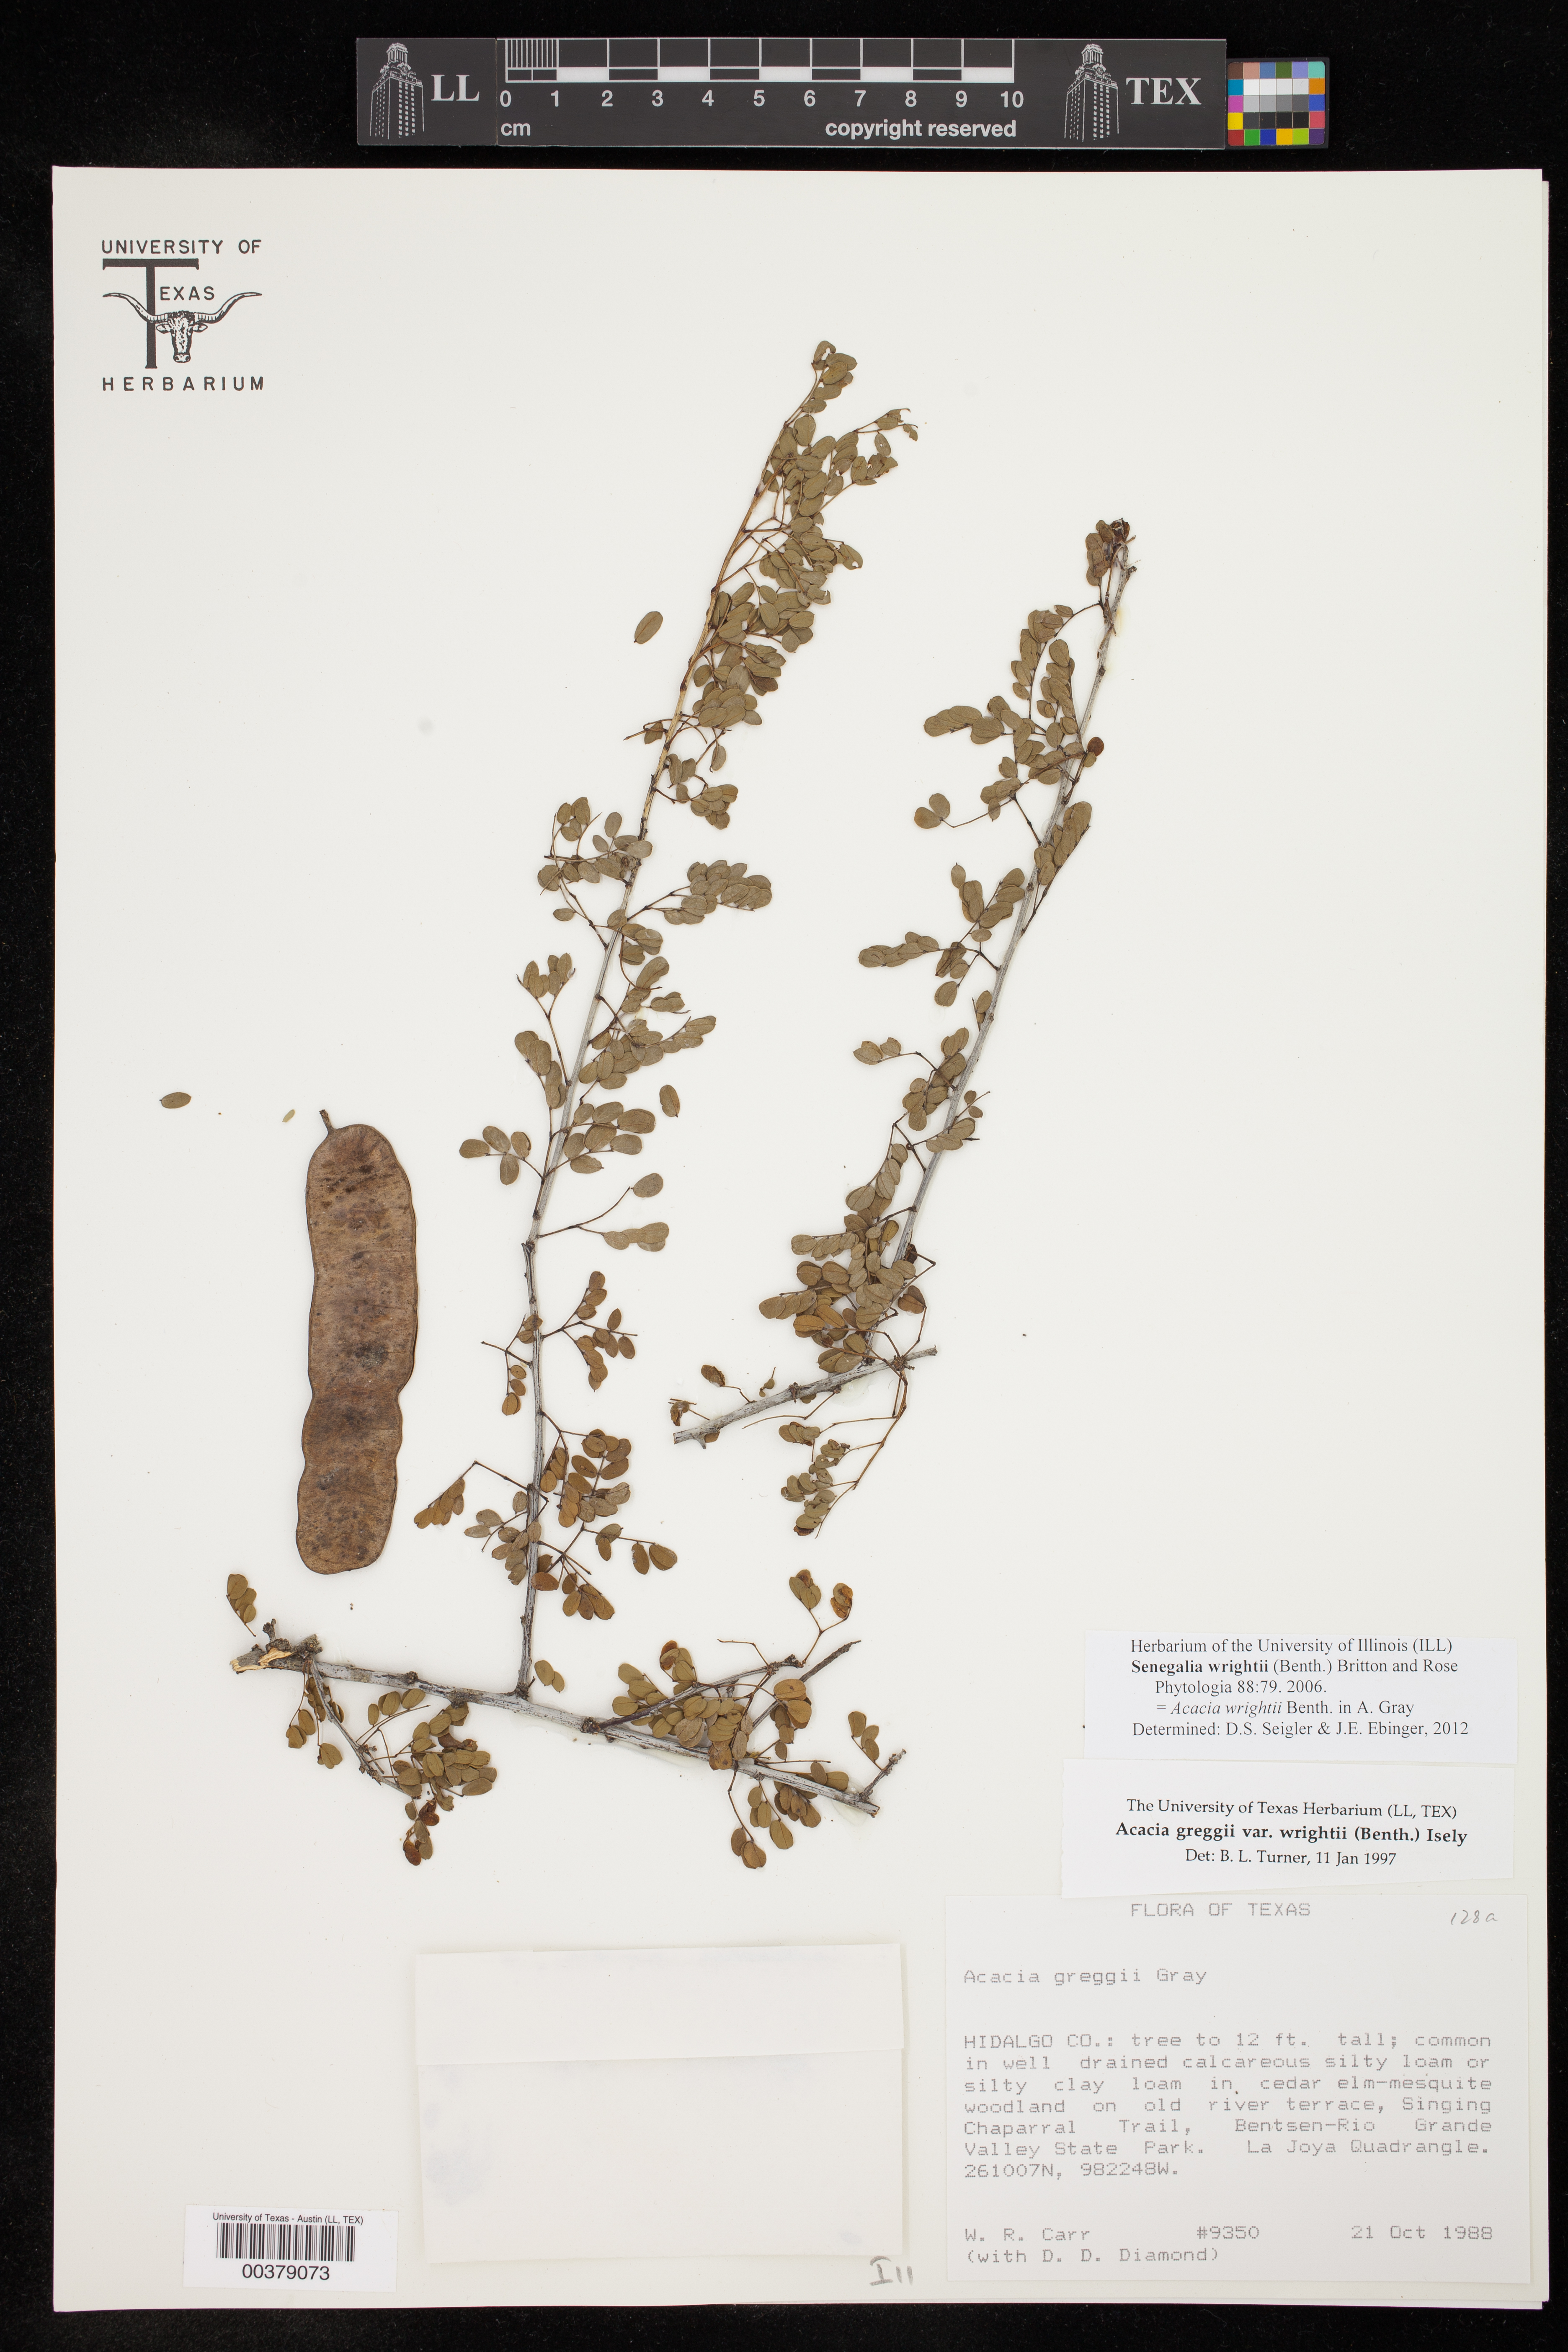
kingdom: Plantae
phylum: Tracheophyta
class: Magnoliopsida
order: Fabales
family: Fabaceae
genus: Senegalia
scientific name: Senegalia wrightii
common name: Texas cat's-claw
